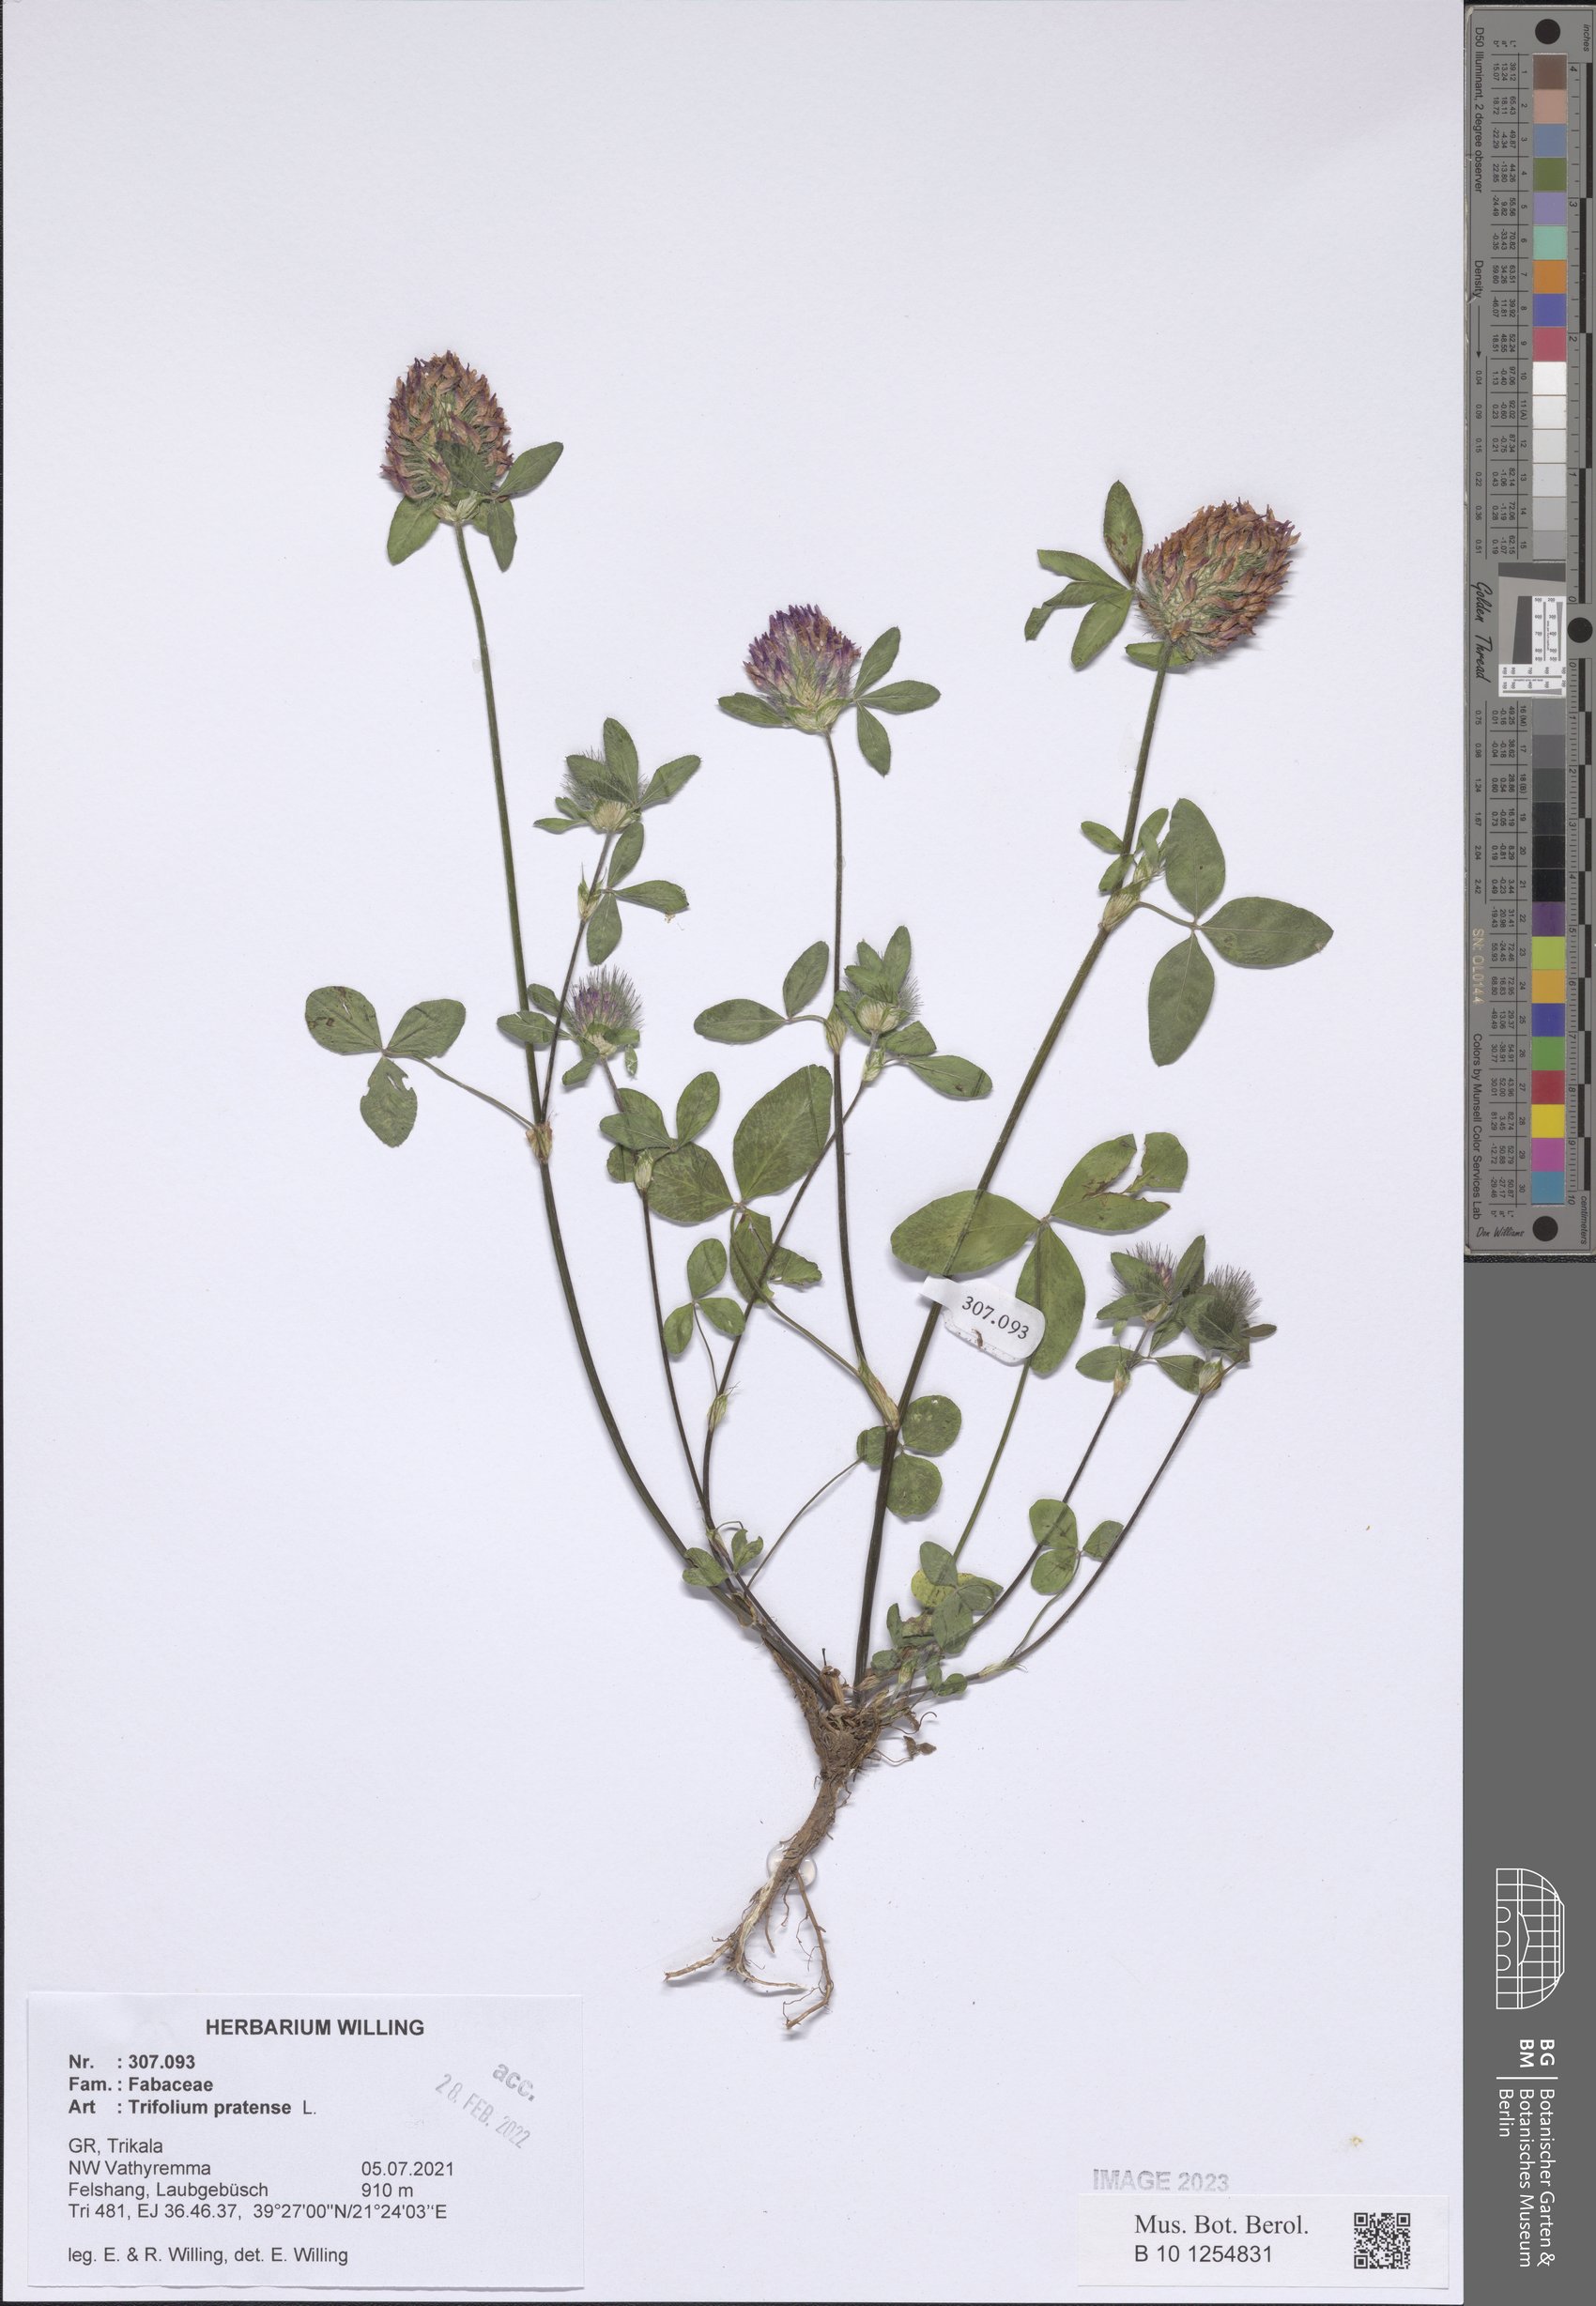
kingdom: Plantae
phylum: Tracheophyta
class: Magnoliopsida
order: Fabales
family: Fabaceae
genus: Trifolium
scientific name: Trifolium pratense
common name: Red clover
